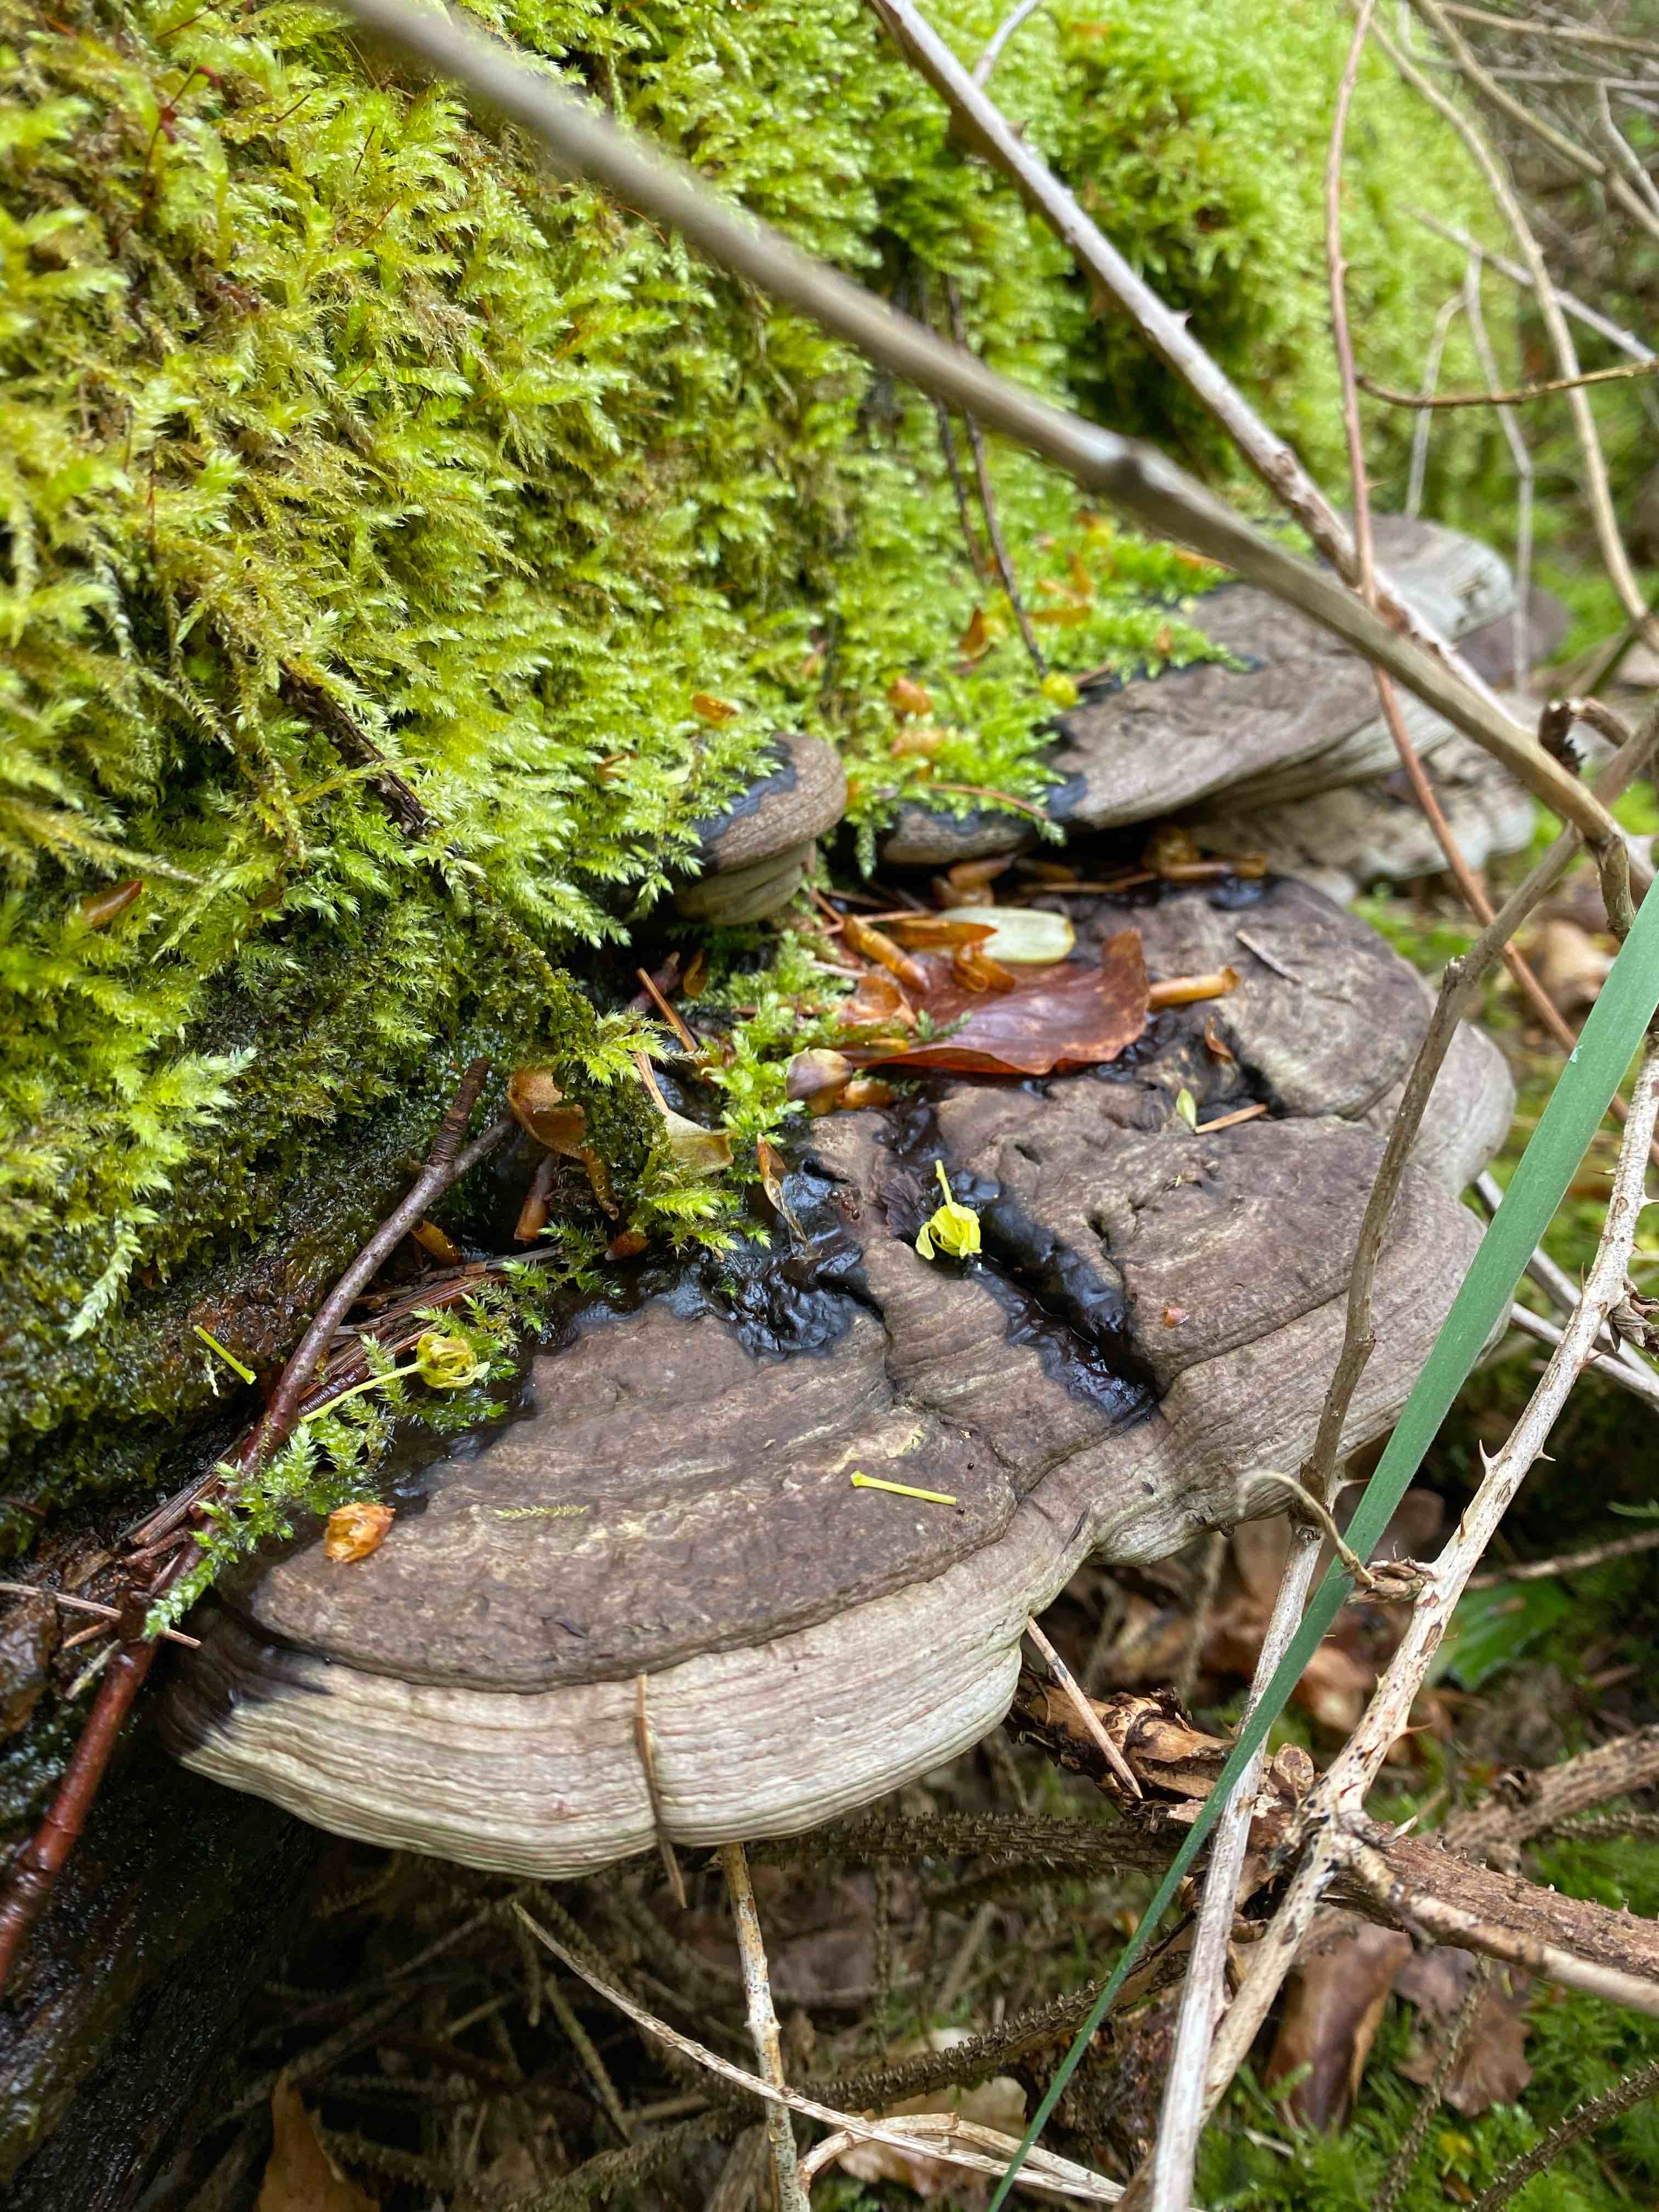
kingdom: Fungi
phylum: Basidiomycota
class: Agaricomycetes
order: Polyporales
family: Polyporaceae
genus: Ganoderma
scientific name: Ganoderma applanatum
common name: flad lakporesvamp
